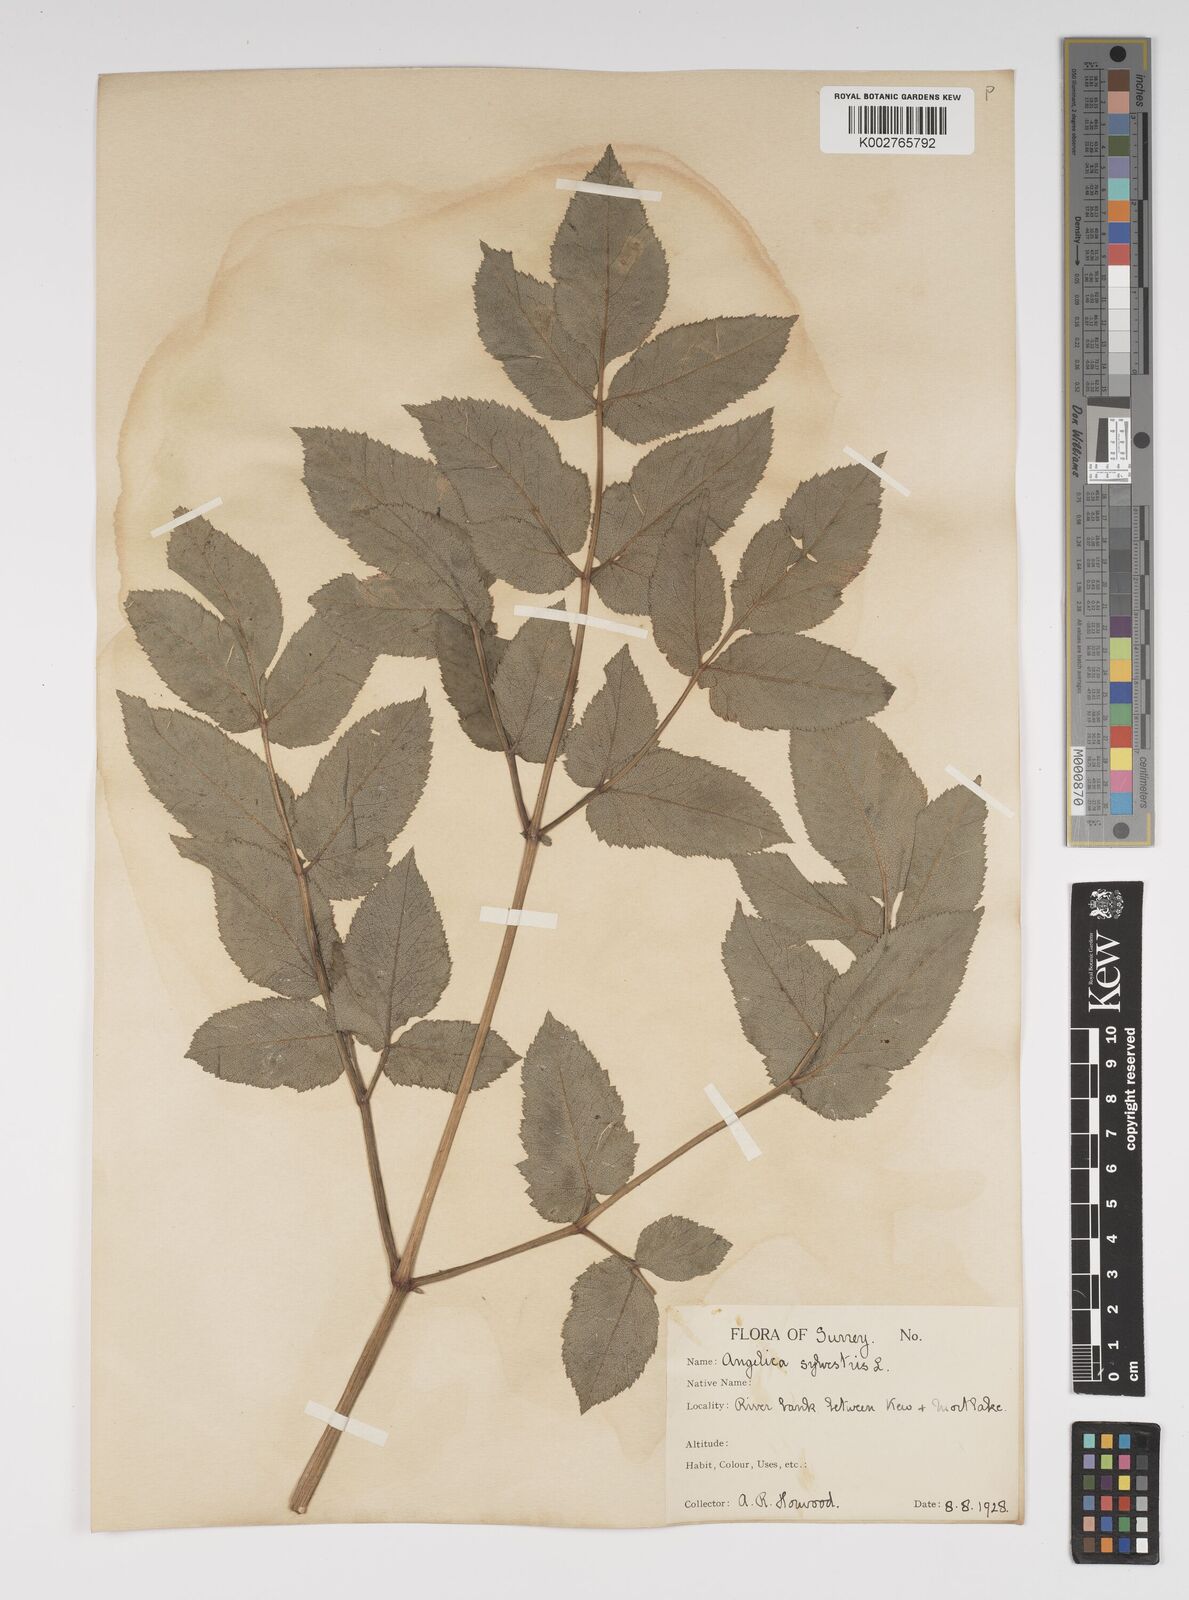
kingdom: Plantae
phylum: Tracheophyta
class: Magnoliopsida
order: Apiales
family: Apiaceae
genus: Angelica
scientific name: Angelica sylvestris
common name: Wild angelica
